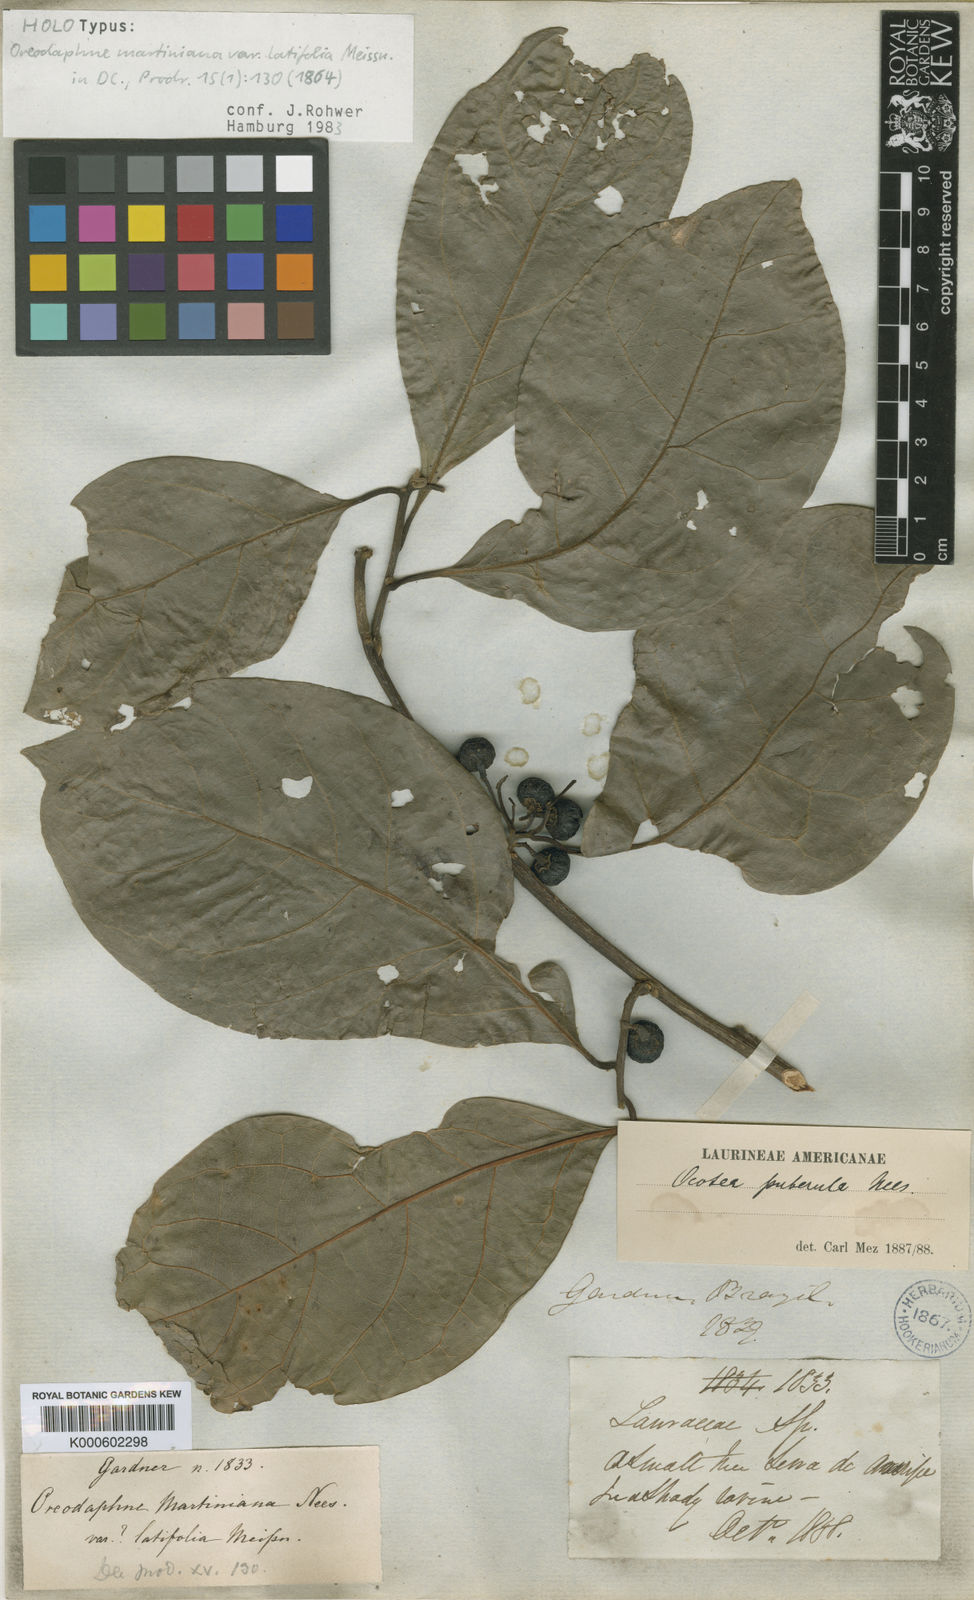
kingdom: Plantae
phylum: Tracheophyta
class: Magnoliopsida
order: Laurales
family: Lauraceae
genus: Ocotea
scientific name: Ocotea puberula
